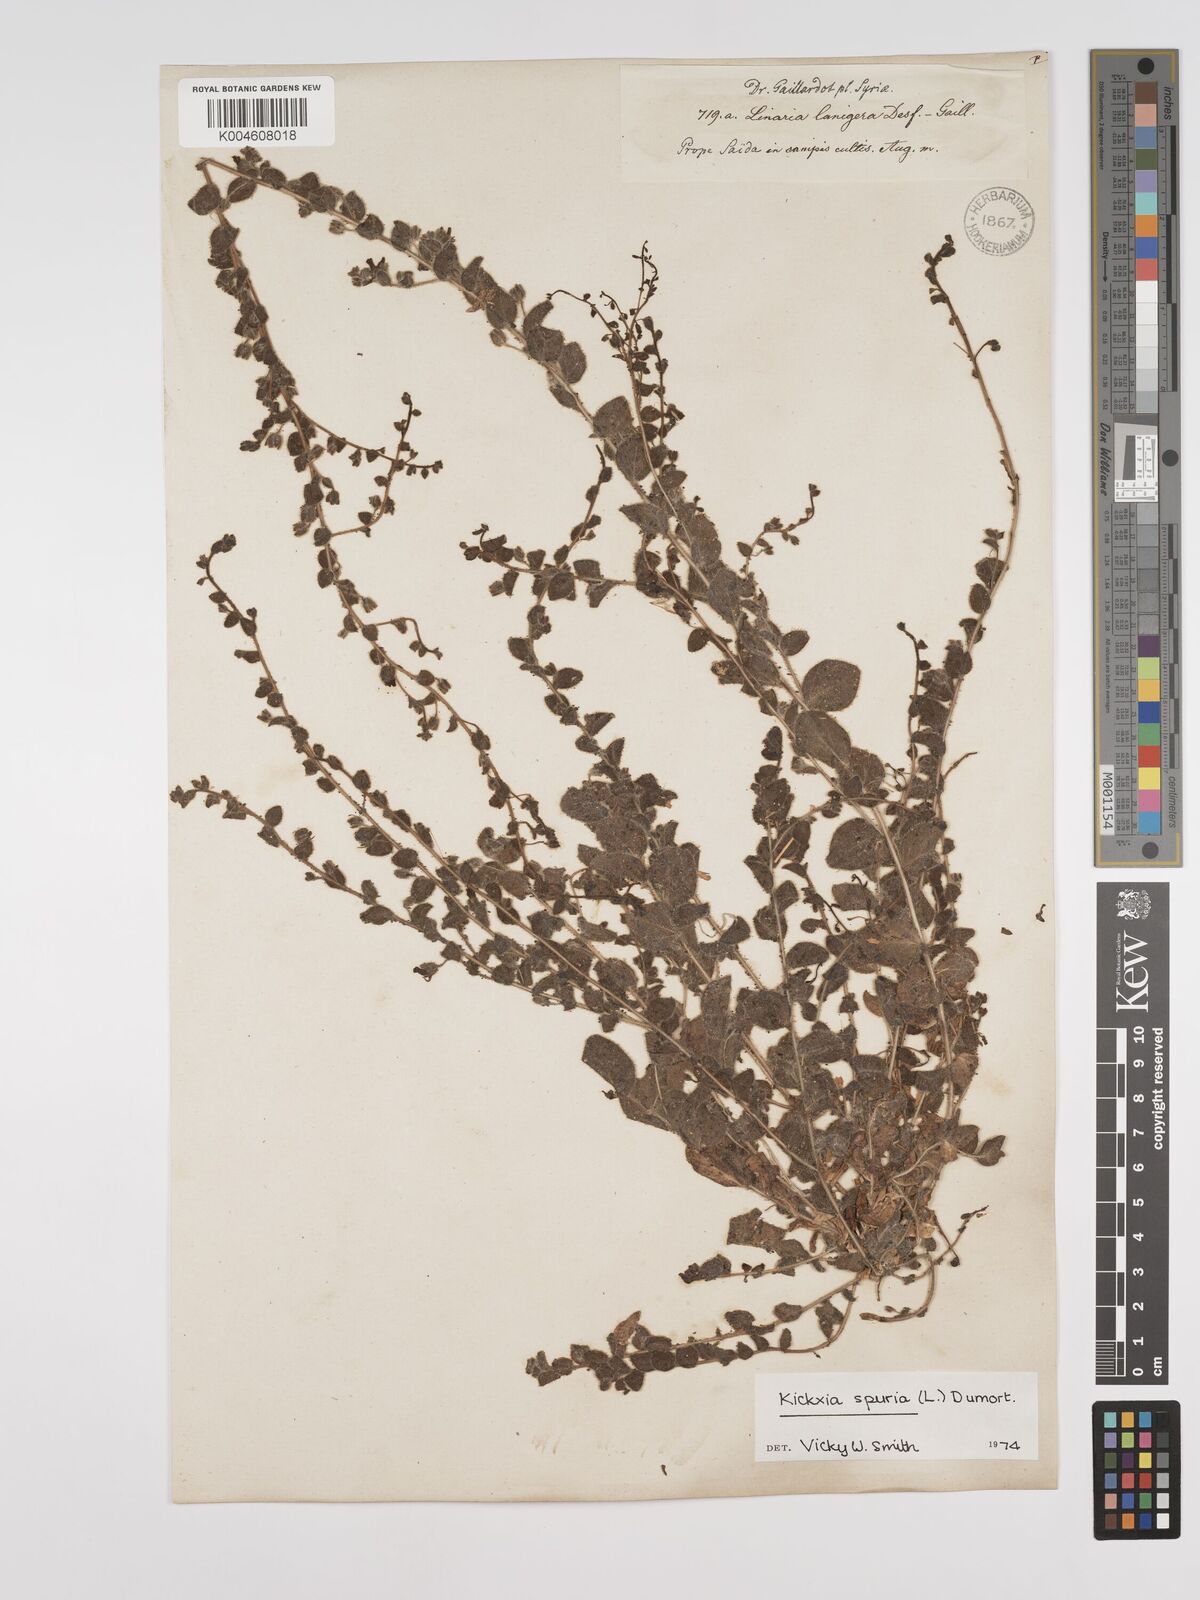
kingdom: Plantae
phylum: Tracheophyta
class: Magnoliopsida
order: Lamiales
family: Plantaginaceae
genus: Kickxia
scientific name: Kickxia spuria
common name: Round-leaved fluellen
